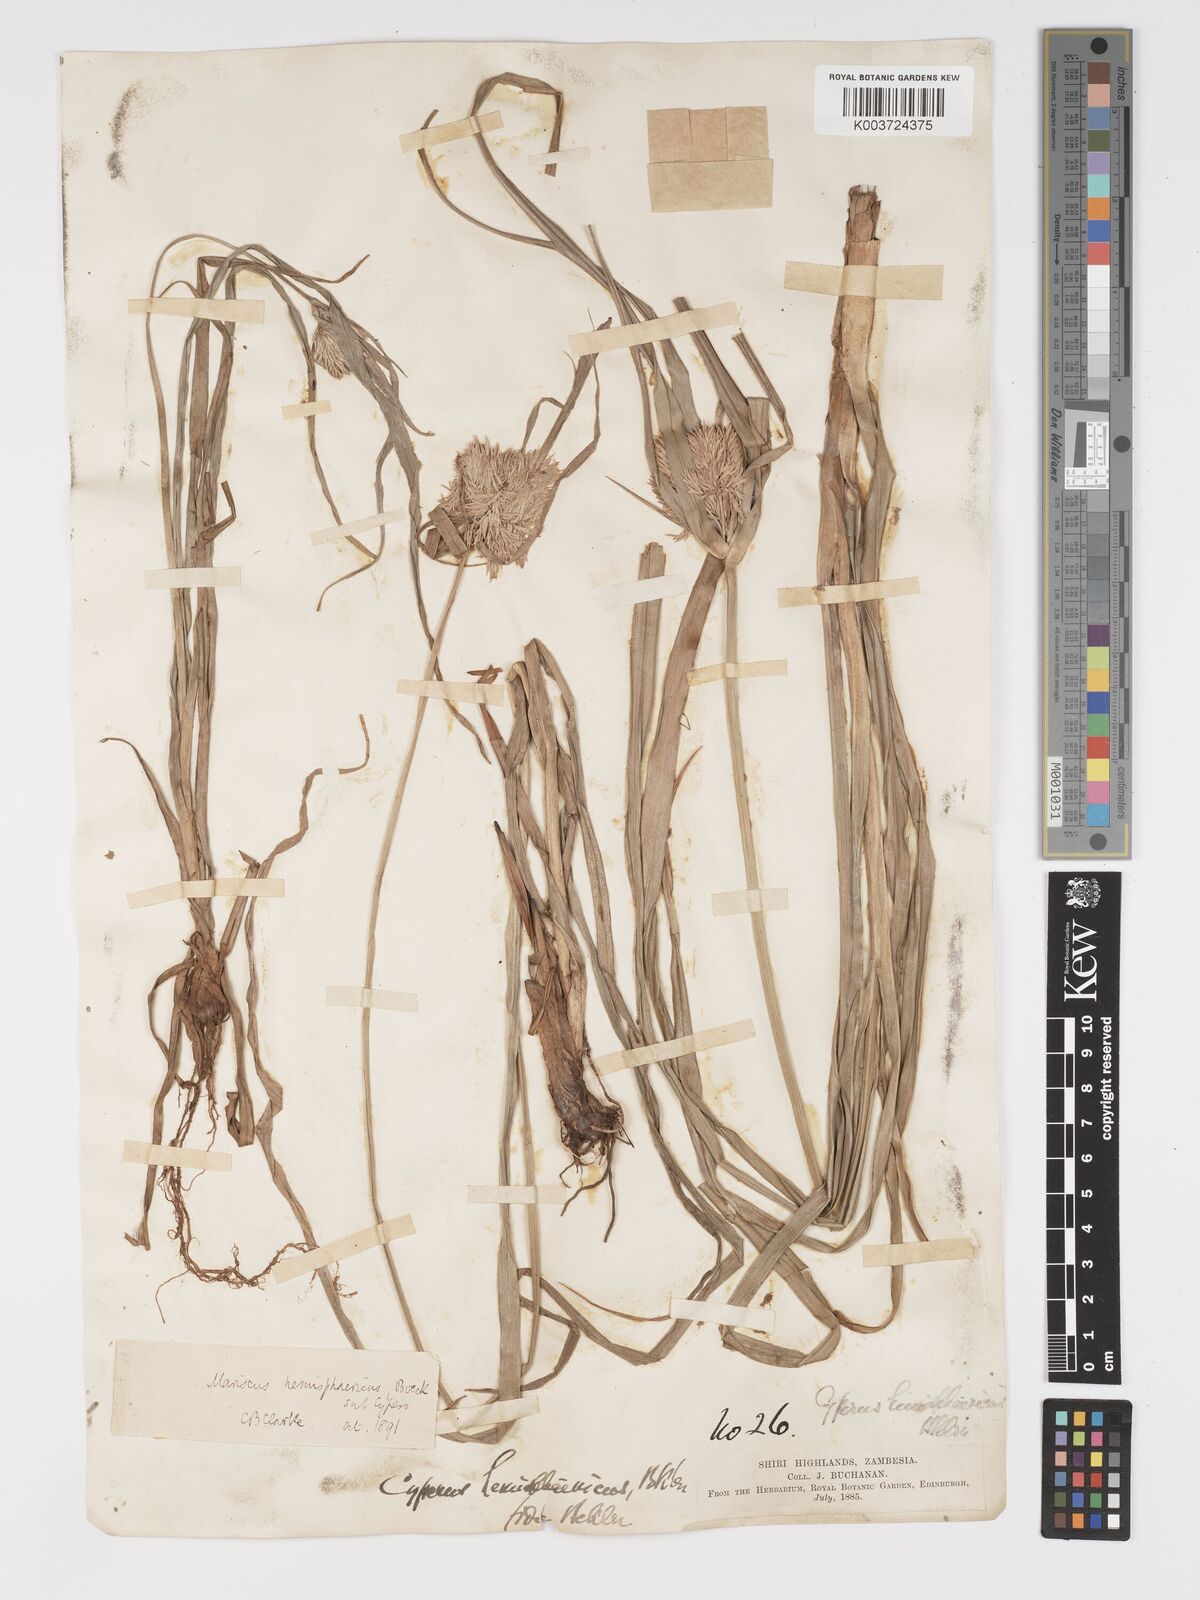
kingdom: Plantae
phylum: Tracheophyta
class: Liliopsida
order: Poales
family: Cyperaceae
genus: Cyperus
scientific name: Cyperus hemisphaericus
